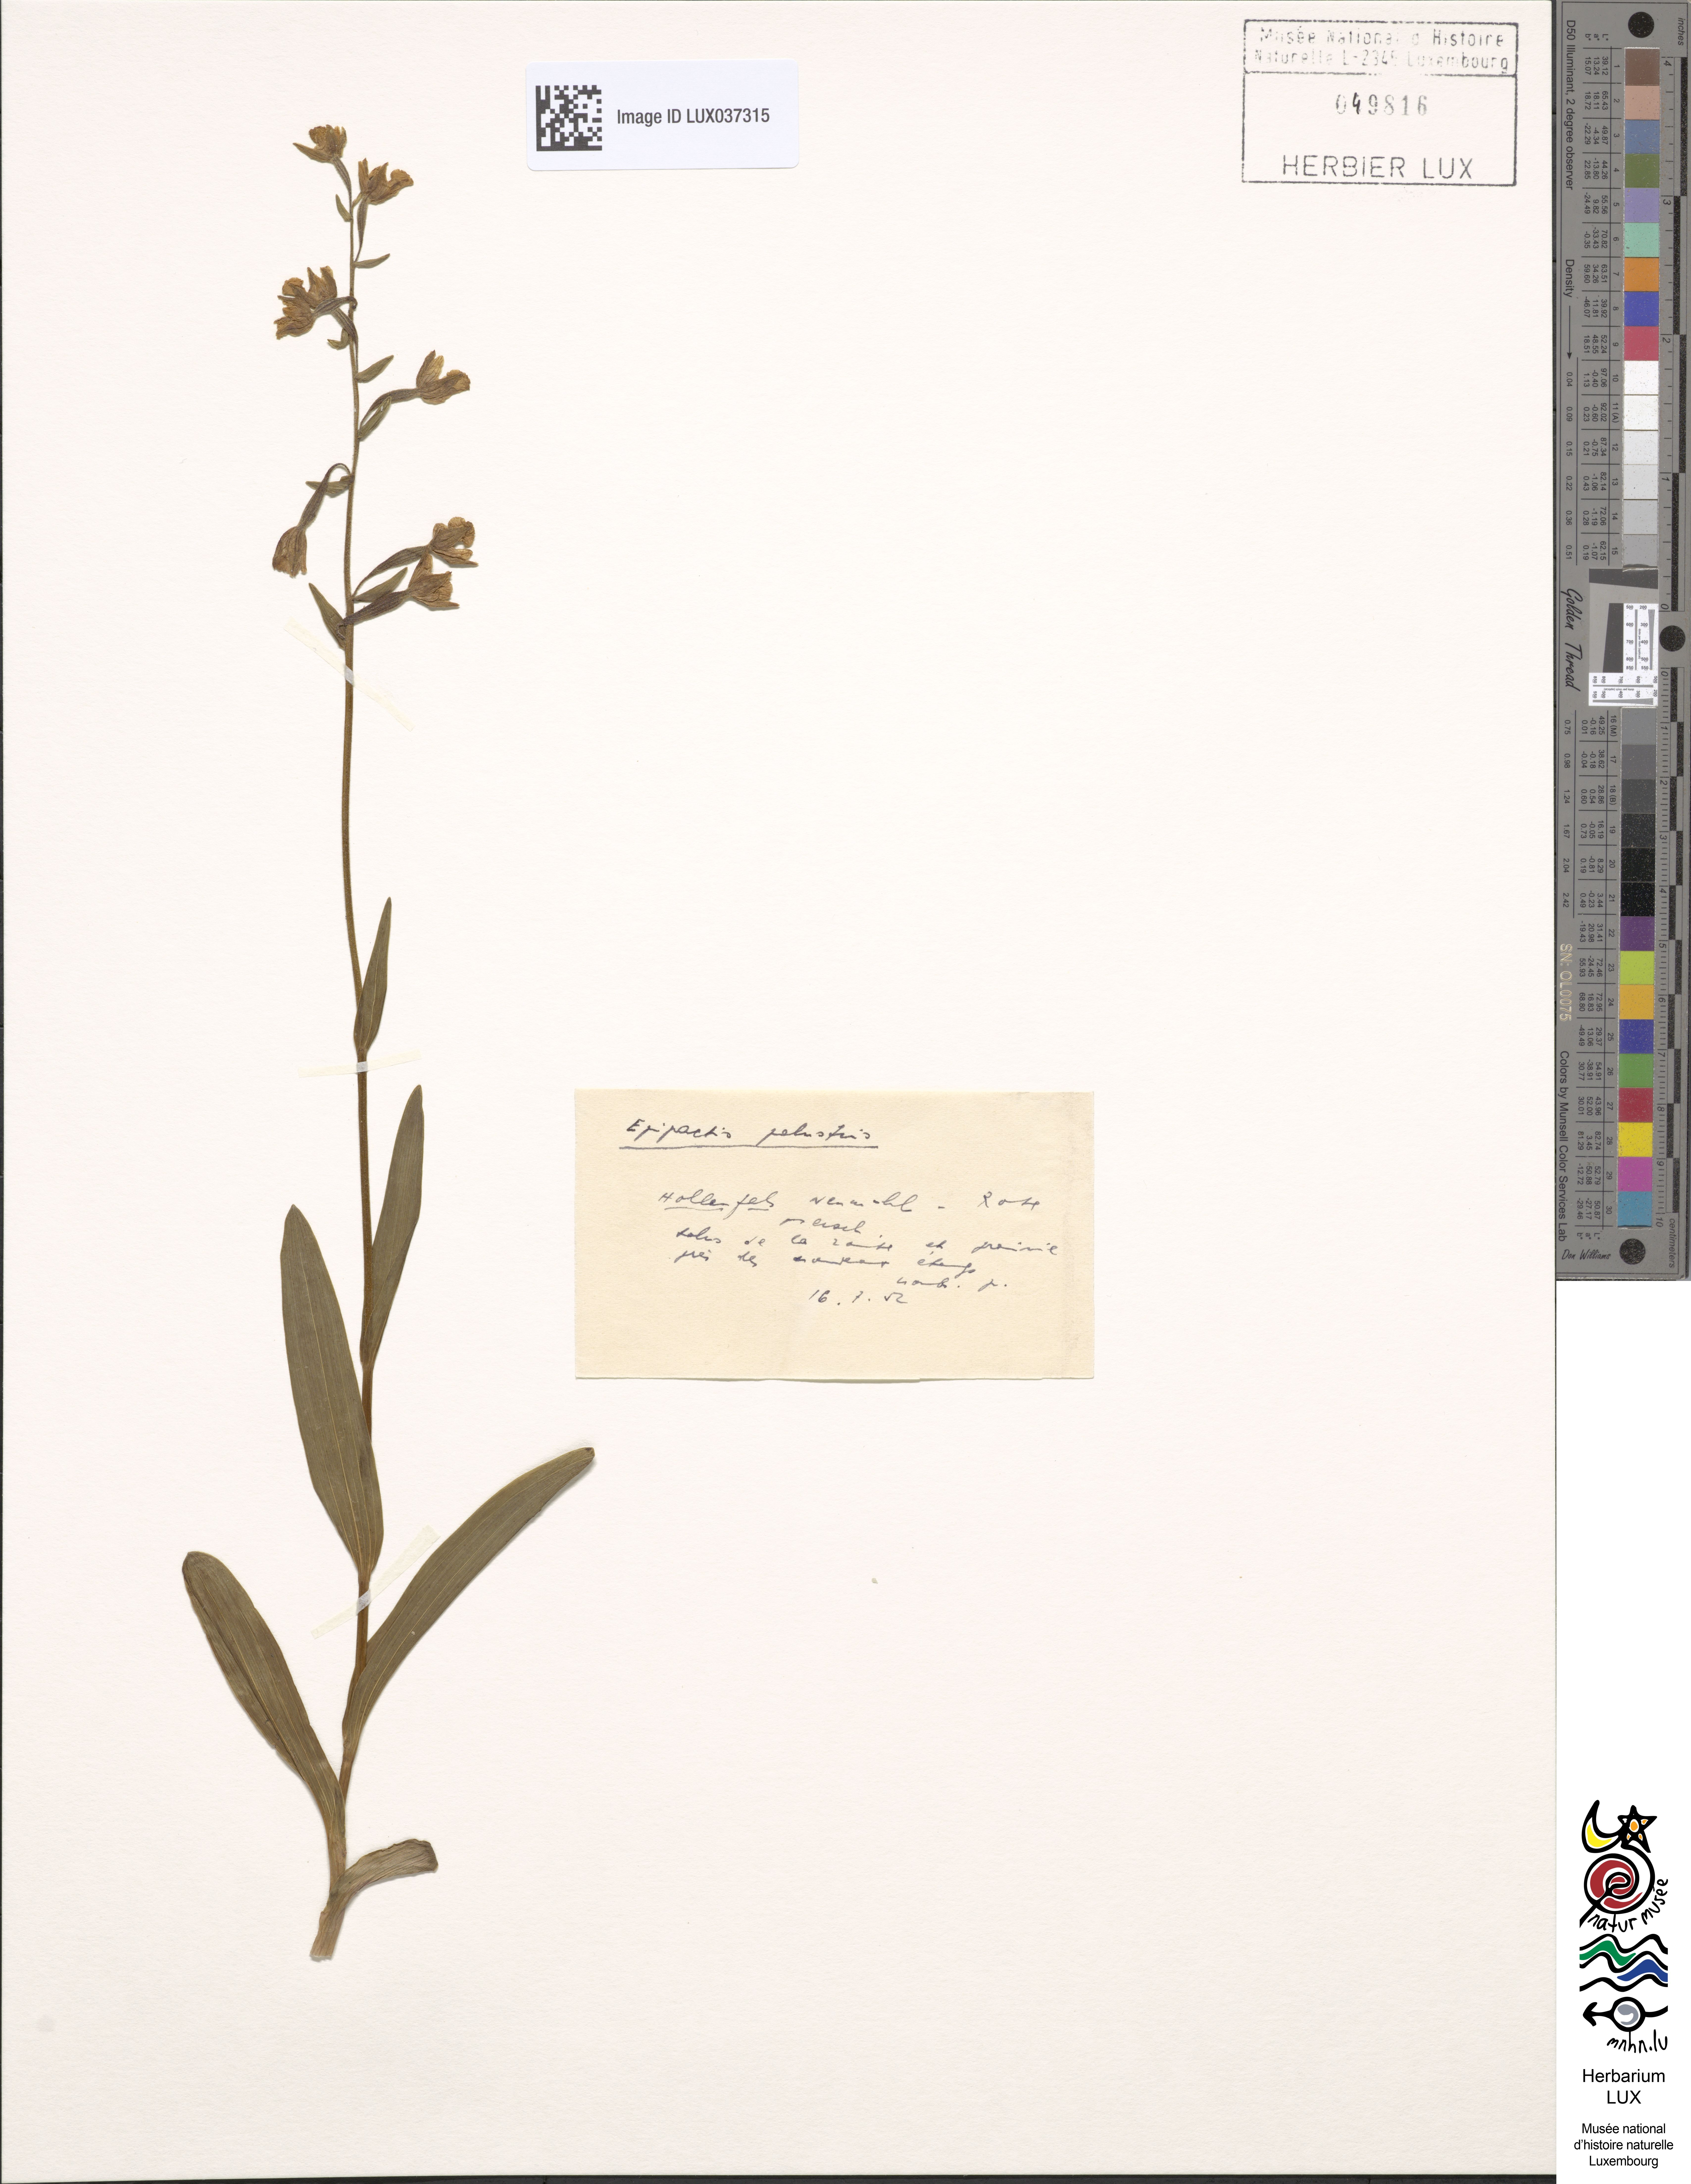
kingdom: Plantae
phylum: Tracheophyta
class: Liliopsida
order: Asparagales
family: Orchidaceae
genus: Epipactis
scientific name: Epipactis palustris
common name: Marsh helleborine
